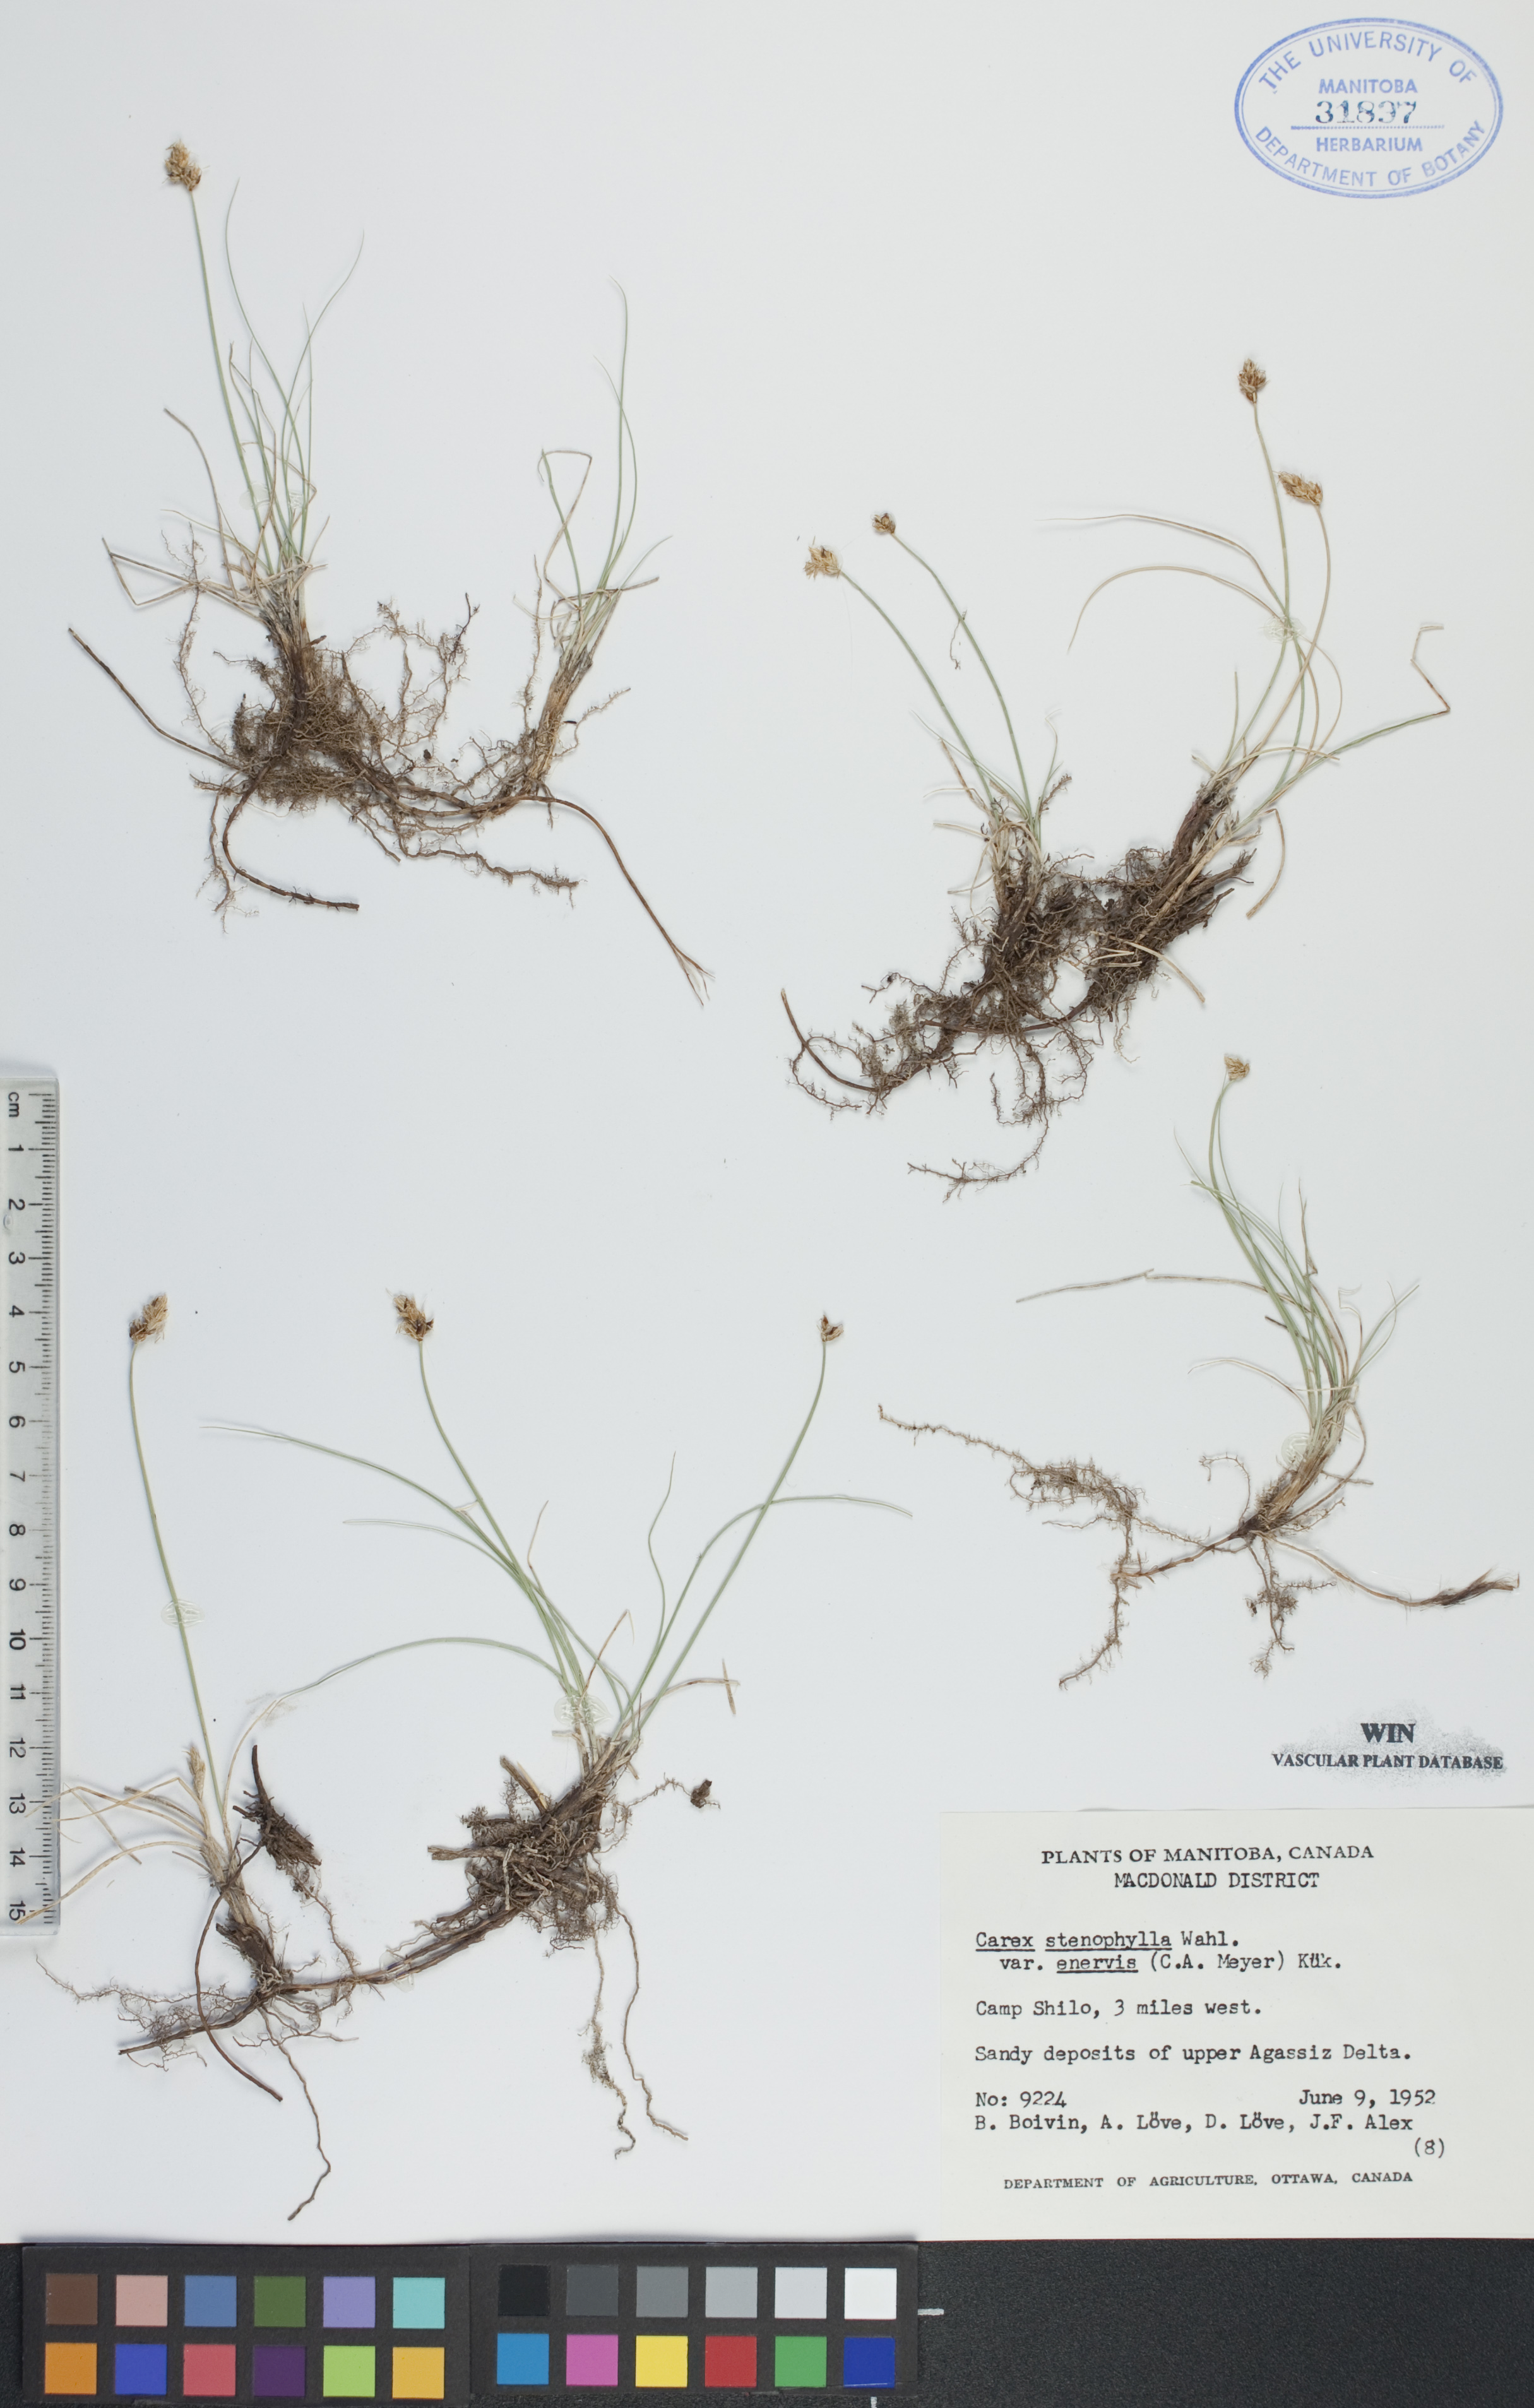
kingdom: Plantae
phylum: Tracheophyta
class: Liliopsida
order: Poales
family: Cyperaceae
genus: Carex
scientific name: Carex enervis
